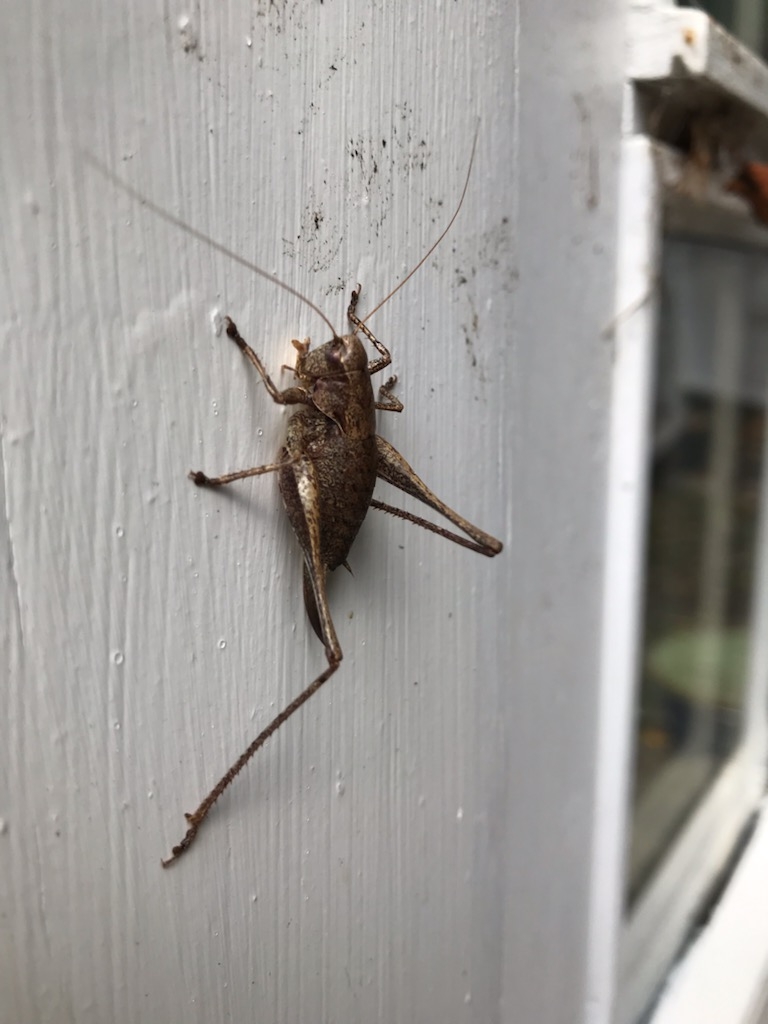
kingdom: Animalia
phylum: Arthropoda
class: Insecta
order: Orthoptera
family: Tettigoniidae
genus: Pholidoptera
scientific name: Pholidoptera griseoaptera
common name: Buskgræshoppe
